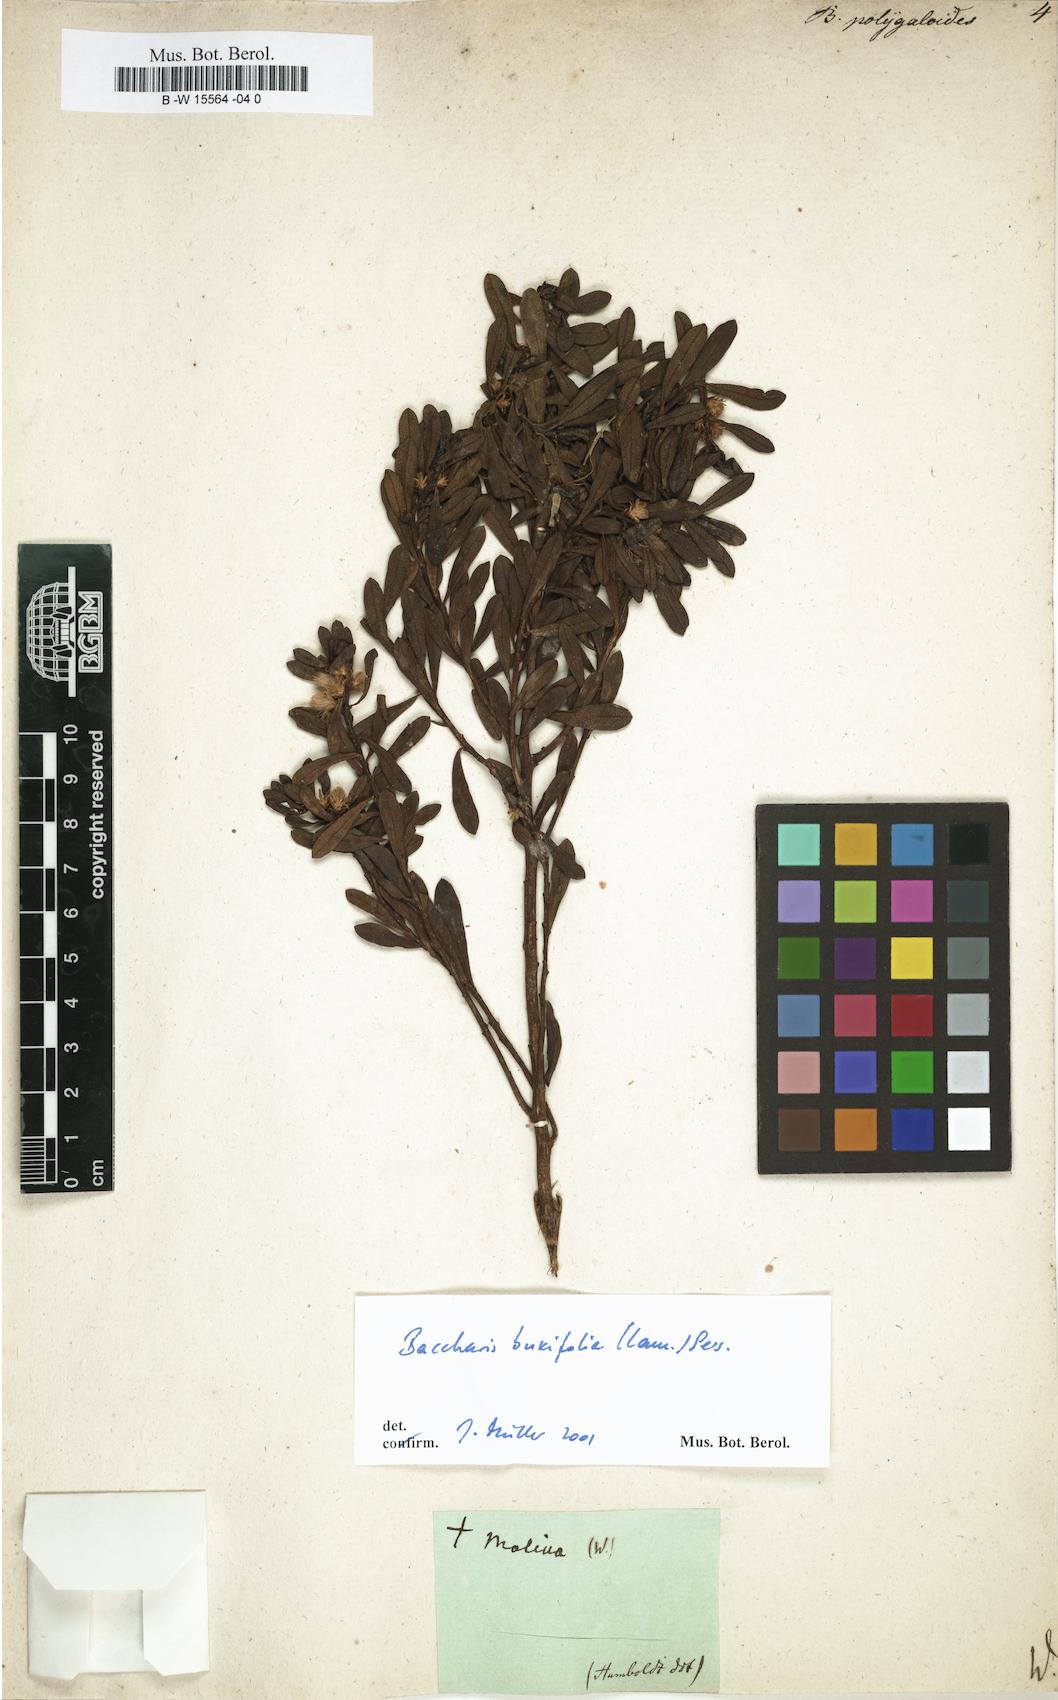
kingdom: Plantae
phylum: Tracheophyta
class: Magnoliopsida
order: Asterales
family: Asteraceae
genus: Baccharis
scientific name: Baccharis
